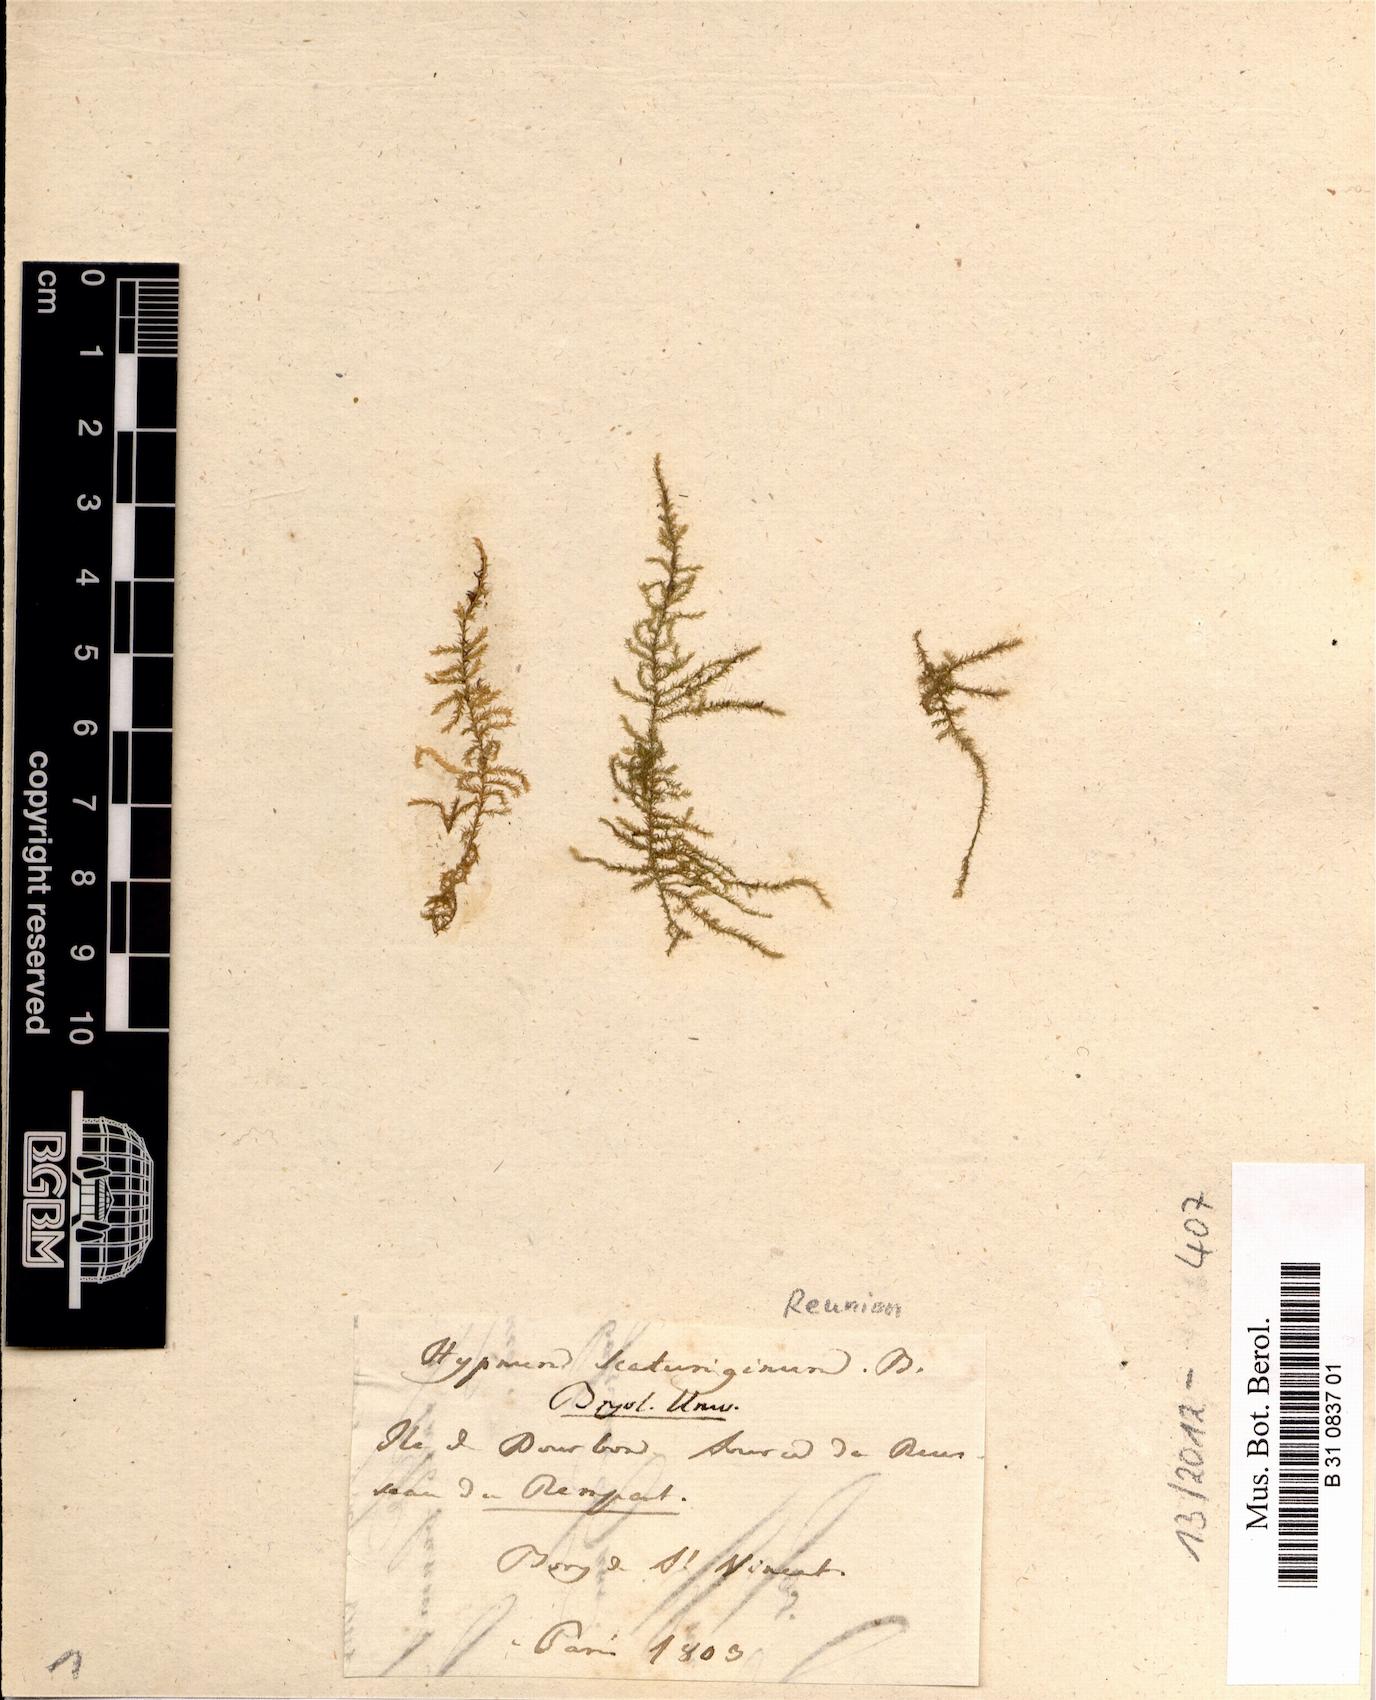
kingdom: Plantae
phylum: Bryophyta
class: Bryopsida
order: Hypnales
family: Hypnaceae
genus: Vesicularia
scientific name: Vesicularia scaturigina
